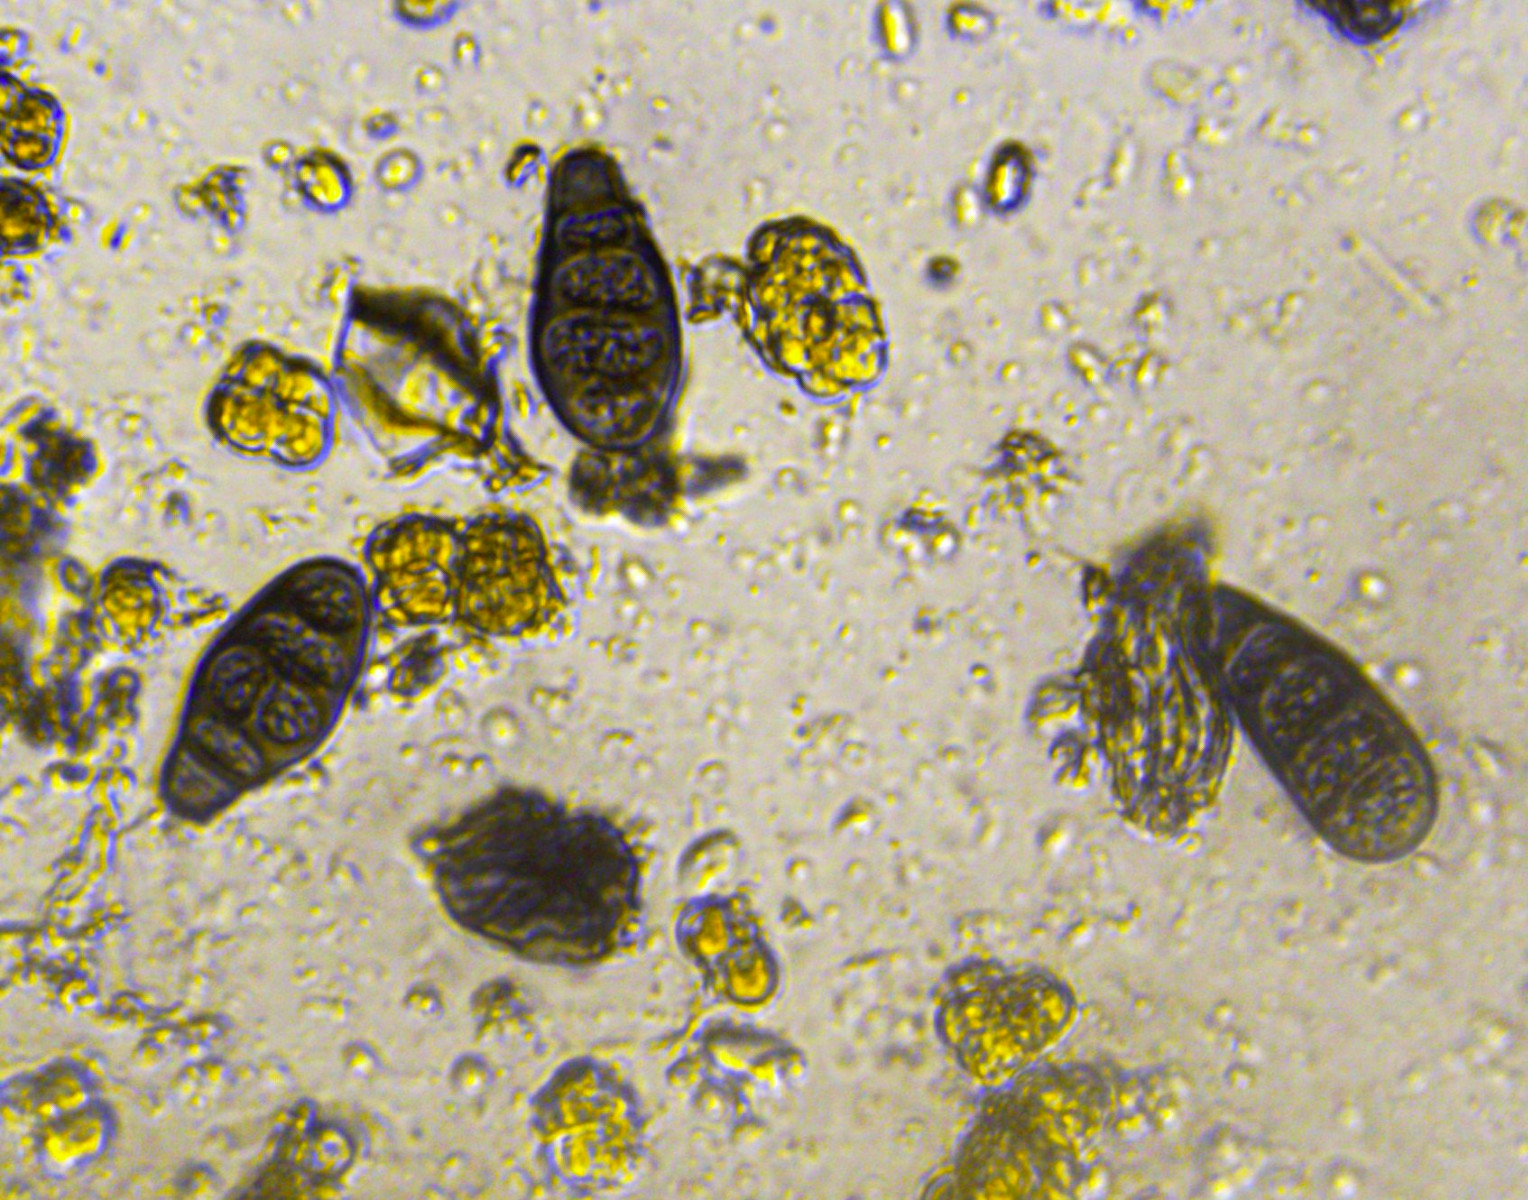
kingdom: Fungi
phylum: Ascomycota
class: Sordariomycetes
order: Diaporthales
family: Melanconidaceae
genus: Prosthecium
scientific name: Prosthecium pyriforme
